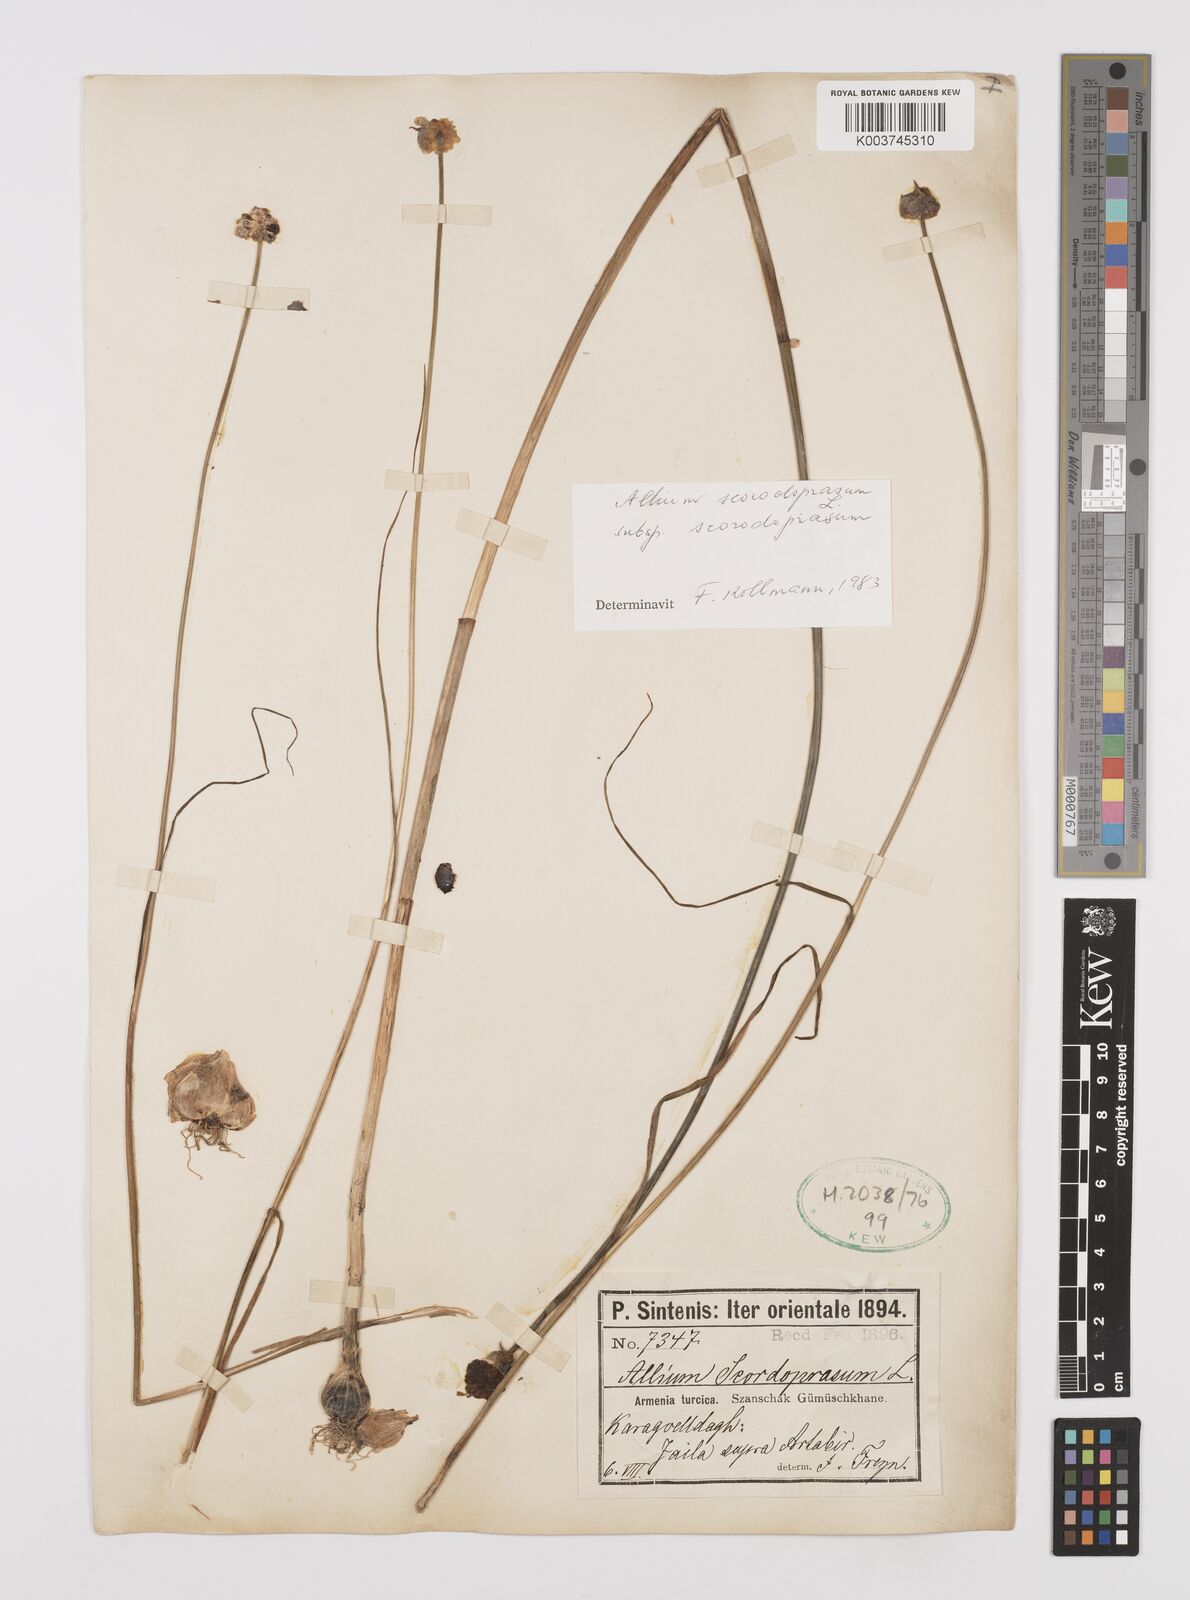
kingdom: Plantae
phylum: Tracheophyta
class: Liliopsida
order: Asparagales
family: Amaryllidaceae
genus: Allium
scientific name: Allium vineale
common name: Crow garlic
